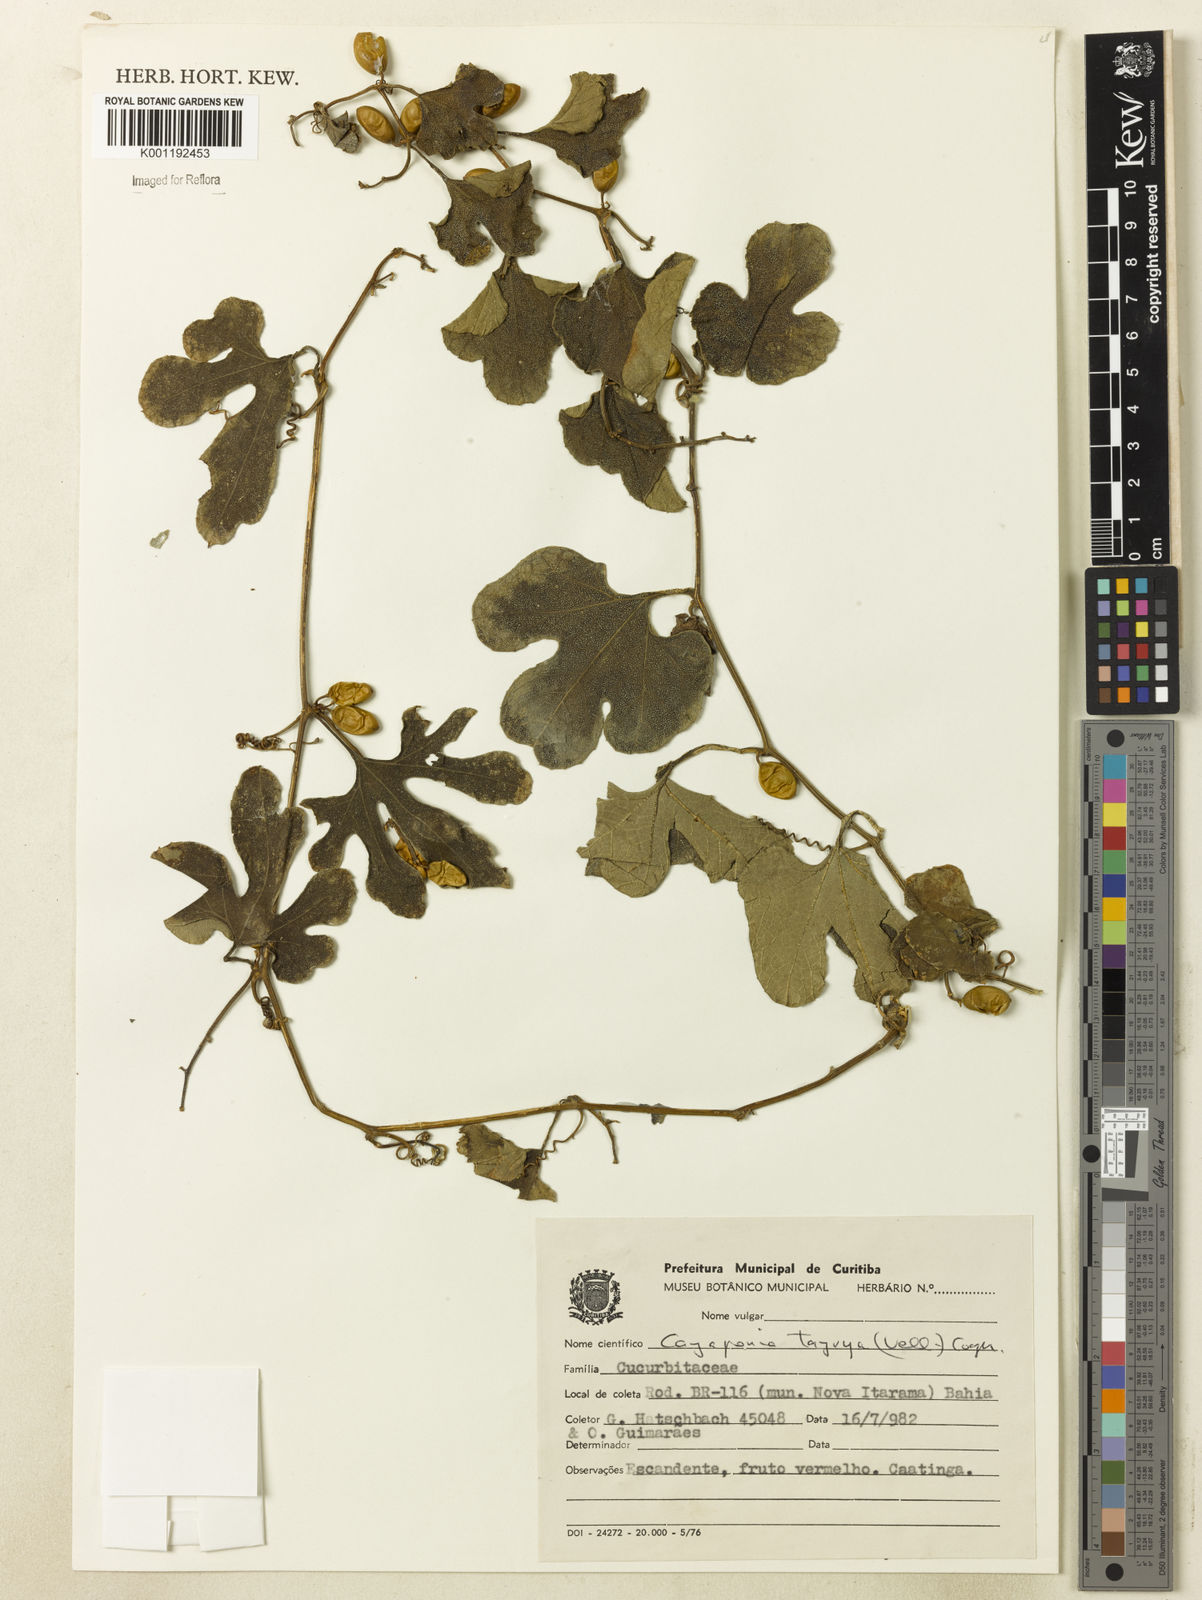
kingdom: Plantae
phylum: Tracheophyta
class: Magnoliopsida
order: Cucurbitales
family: Cucurbitaceae
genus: Cayaponia
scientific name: Cayaponia tayuya
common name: Tayuya
